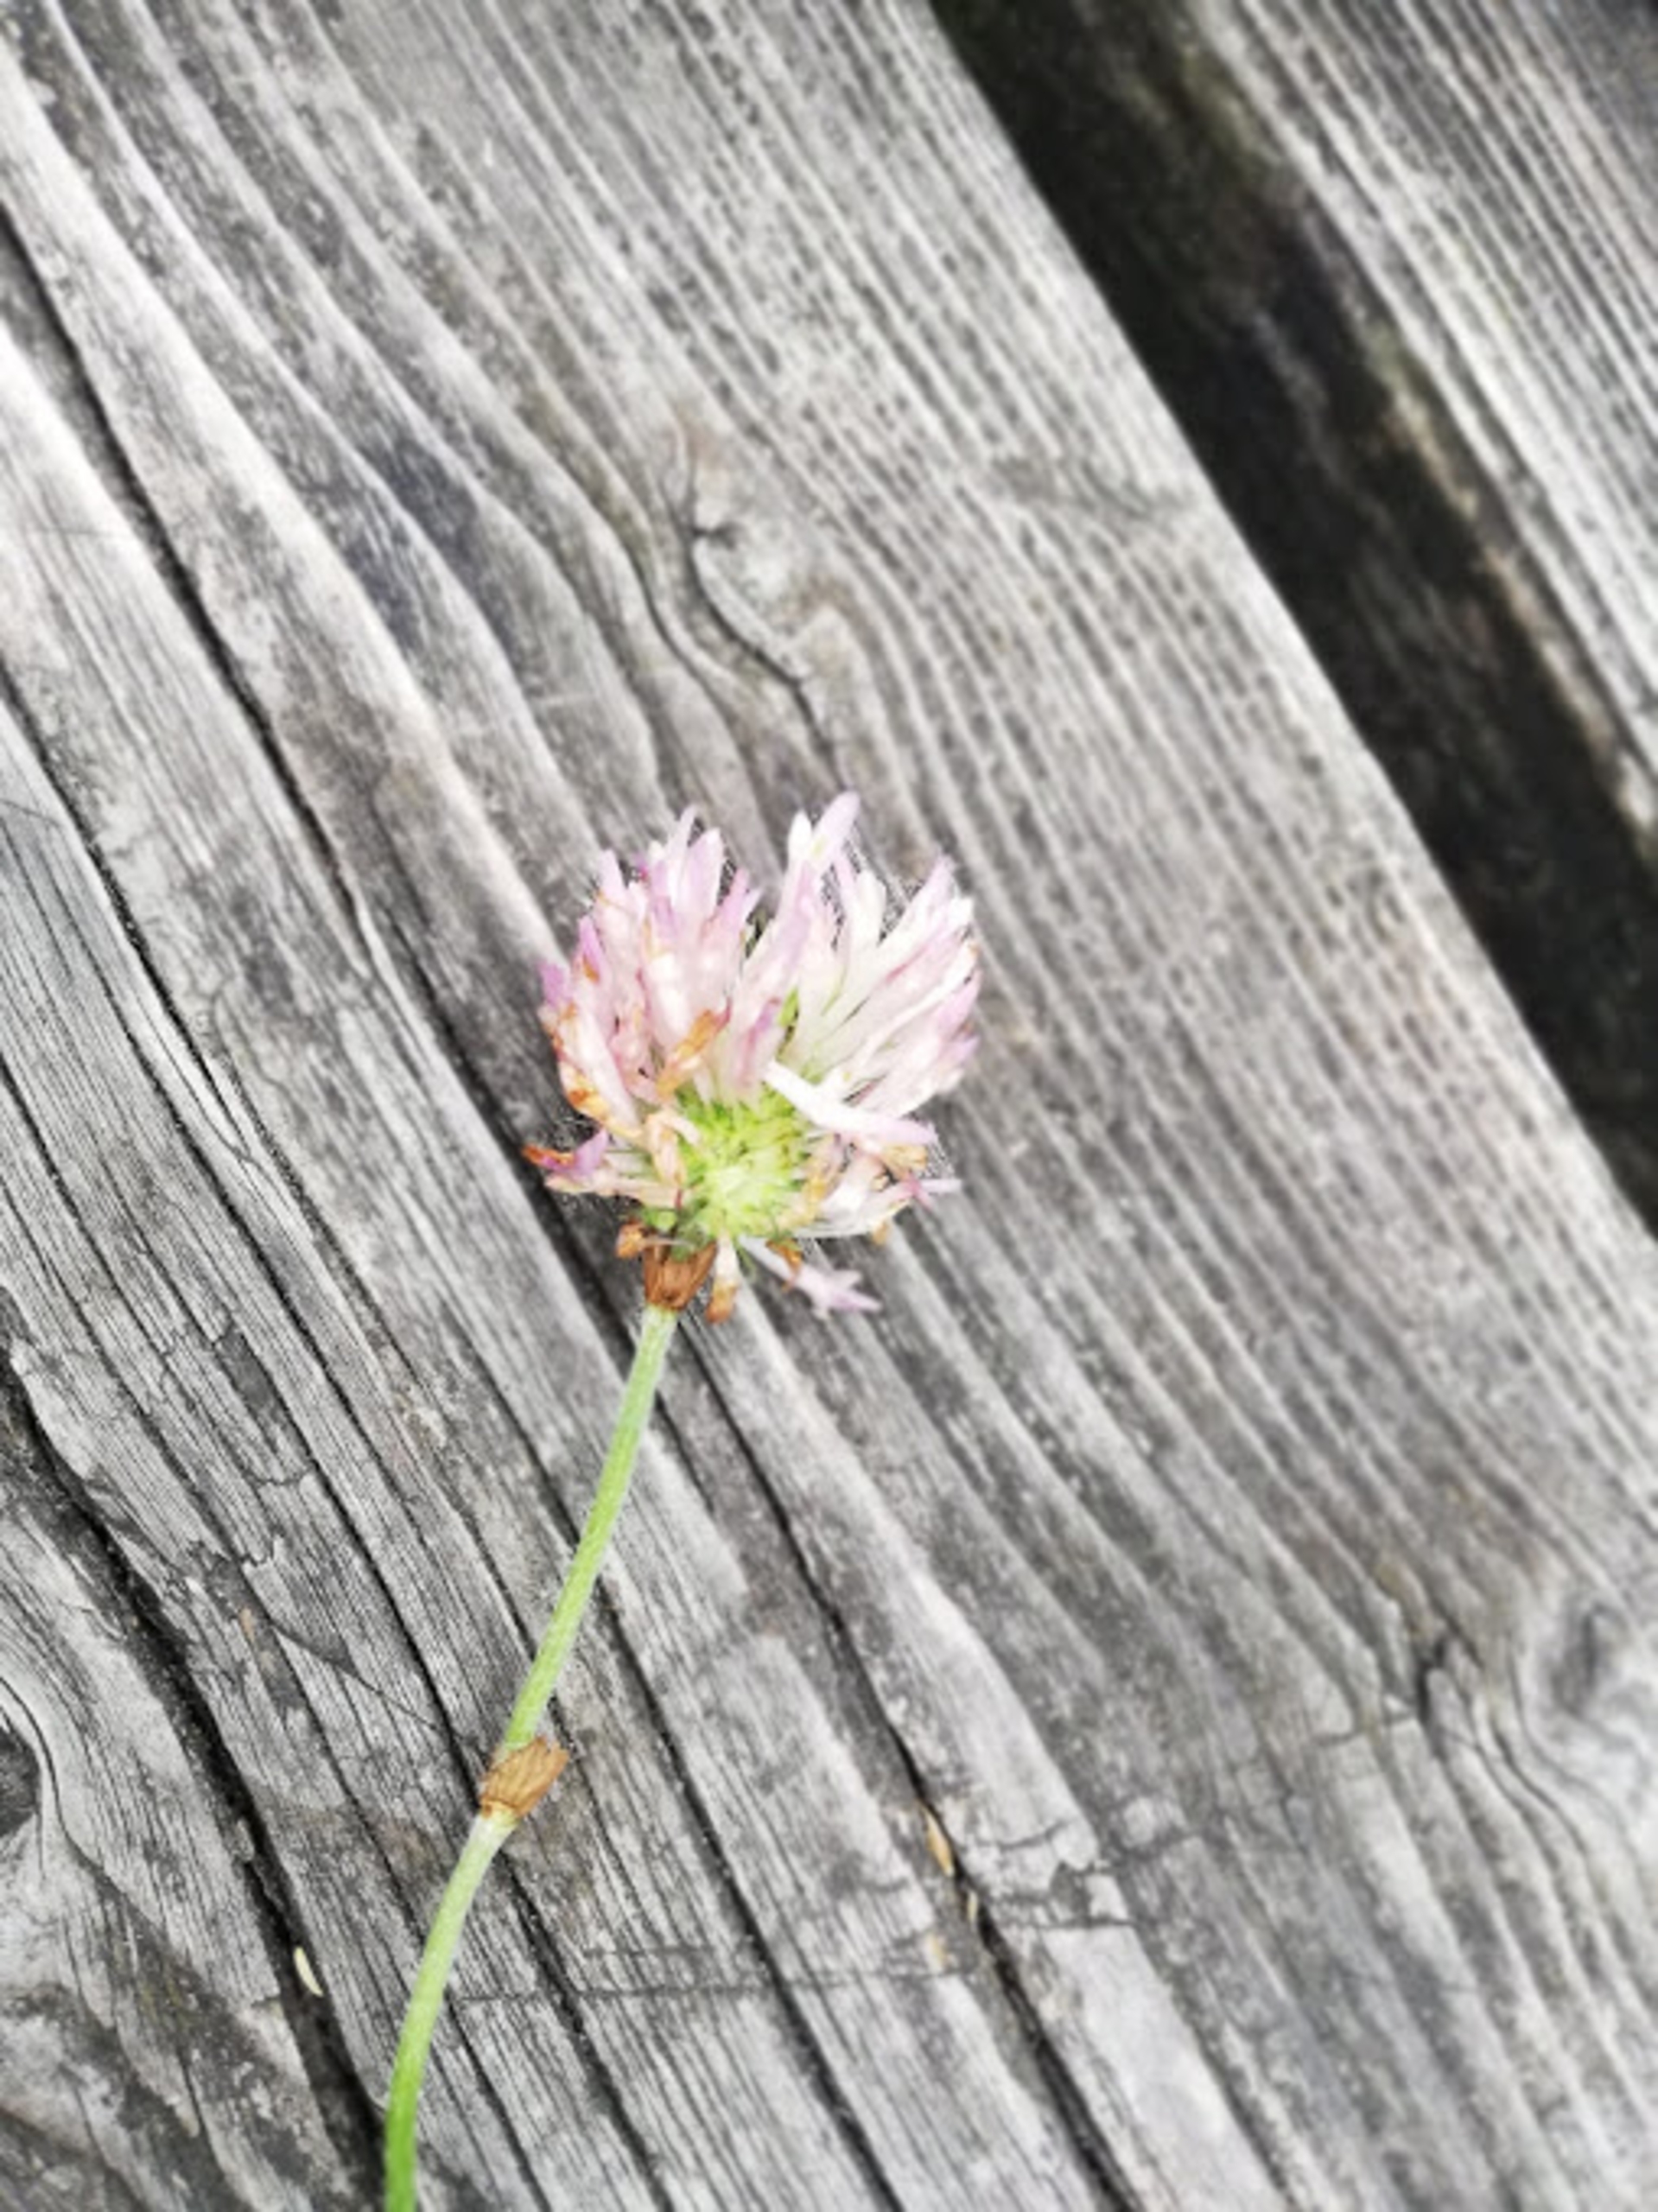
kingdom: Plantae
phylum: Tracheophyta
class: Magnoliopsida
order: Fabales
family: Fabaceae
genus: Trifolium
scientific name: Trifolium
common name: Kløverslægten
